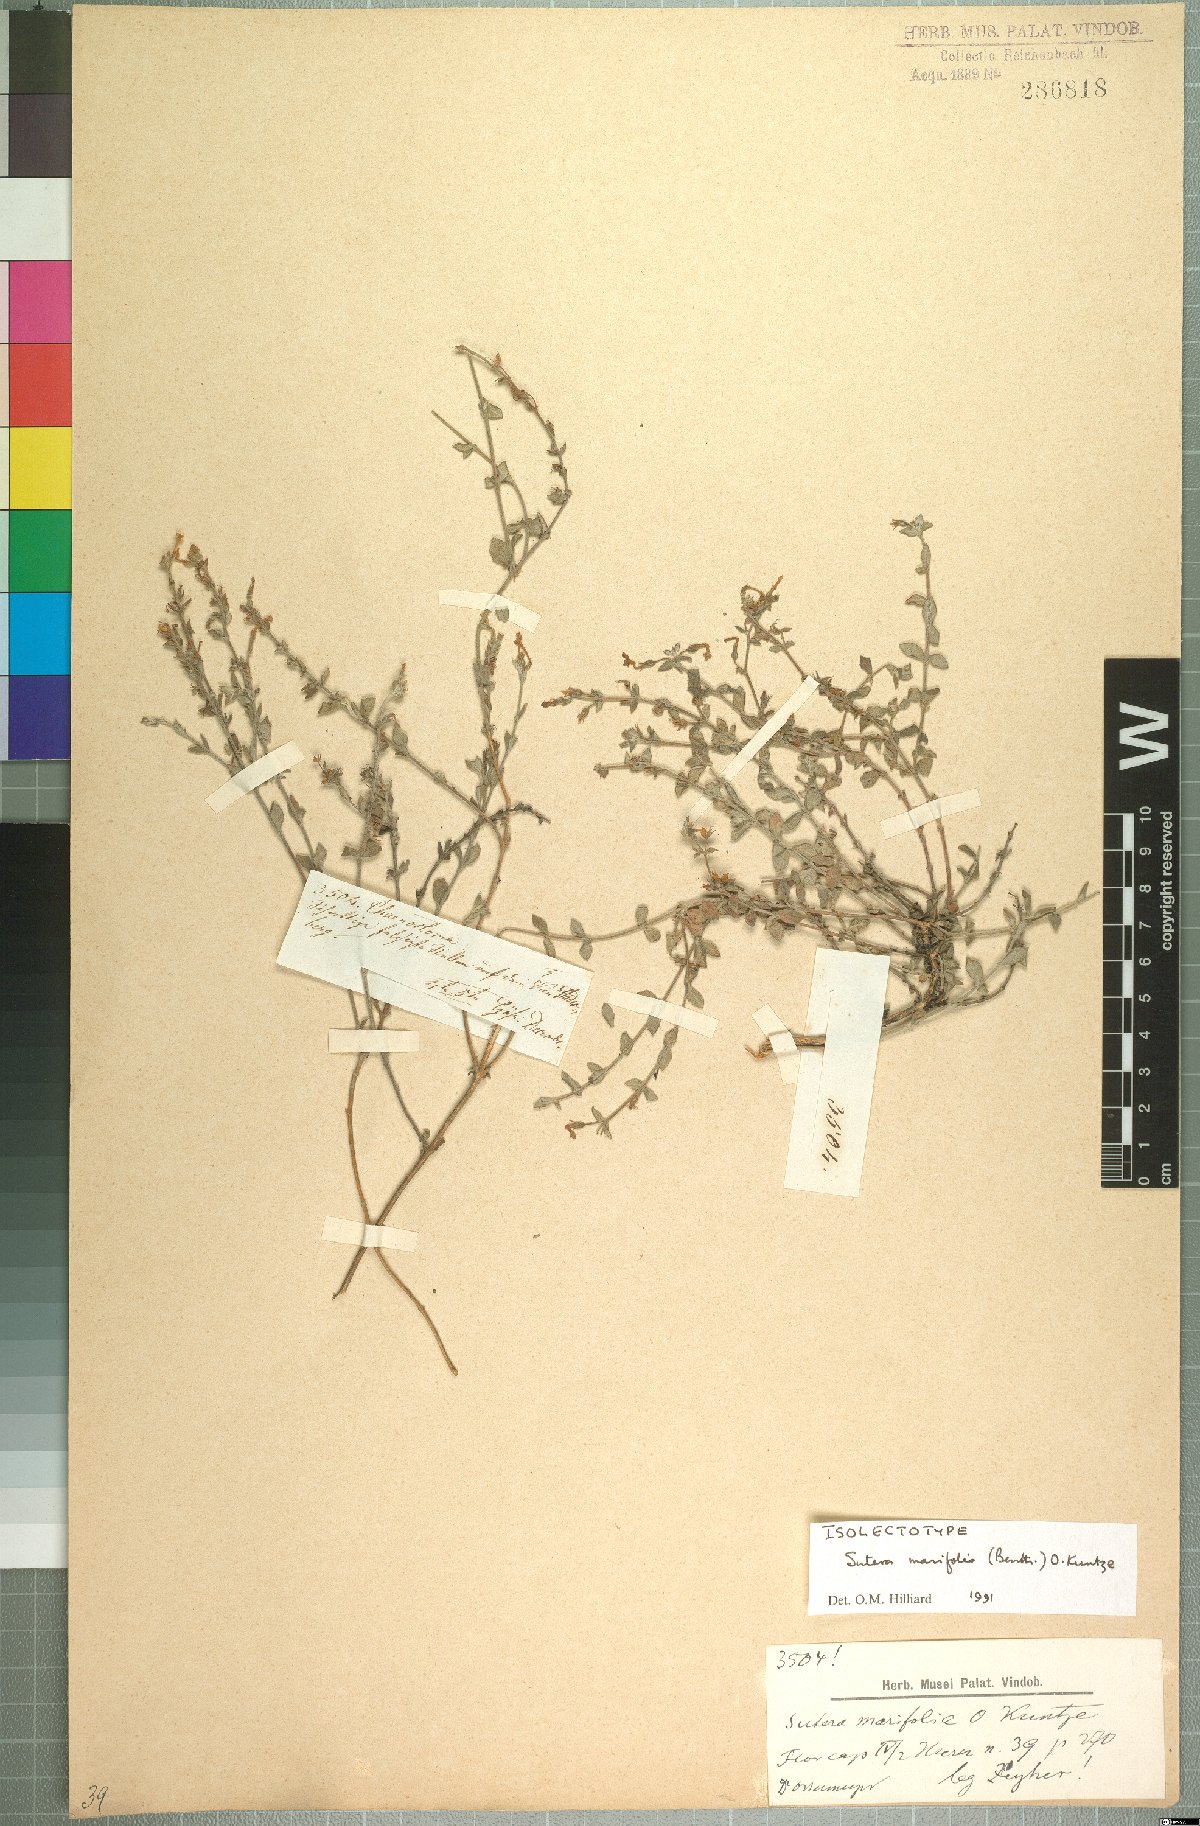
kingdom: Plantae
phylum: Tracheophyta
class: Magnoliopsida
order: Lamiales
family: Scrophulariaceae
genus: Chaenostoma
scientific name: Chaenostoma marifolium
